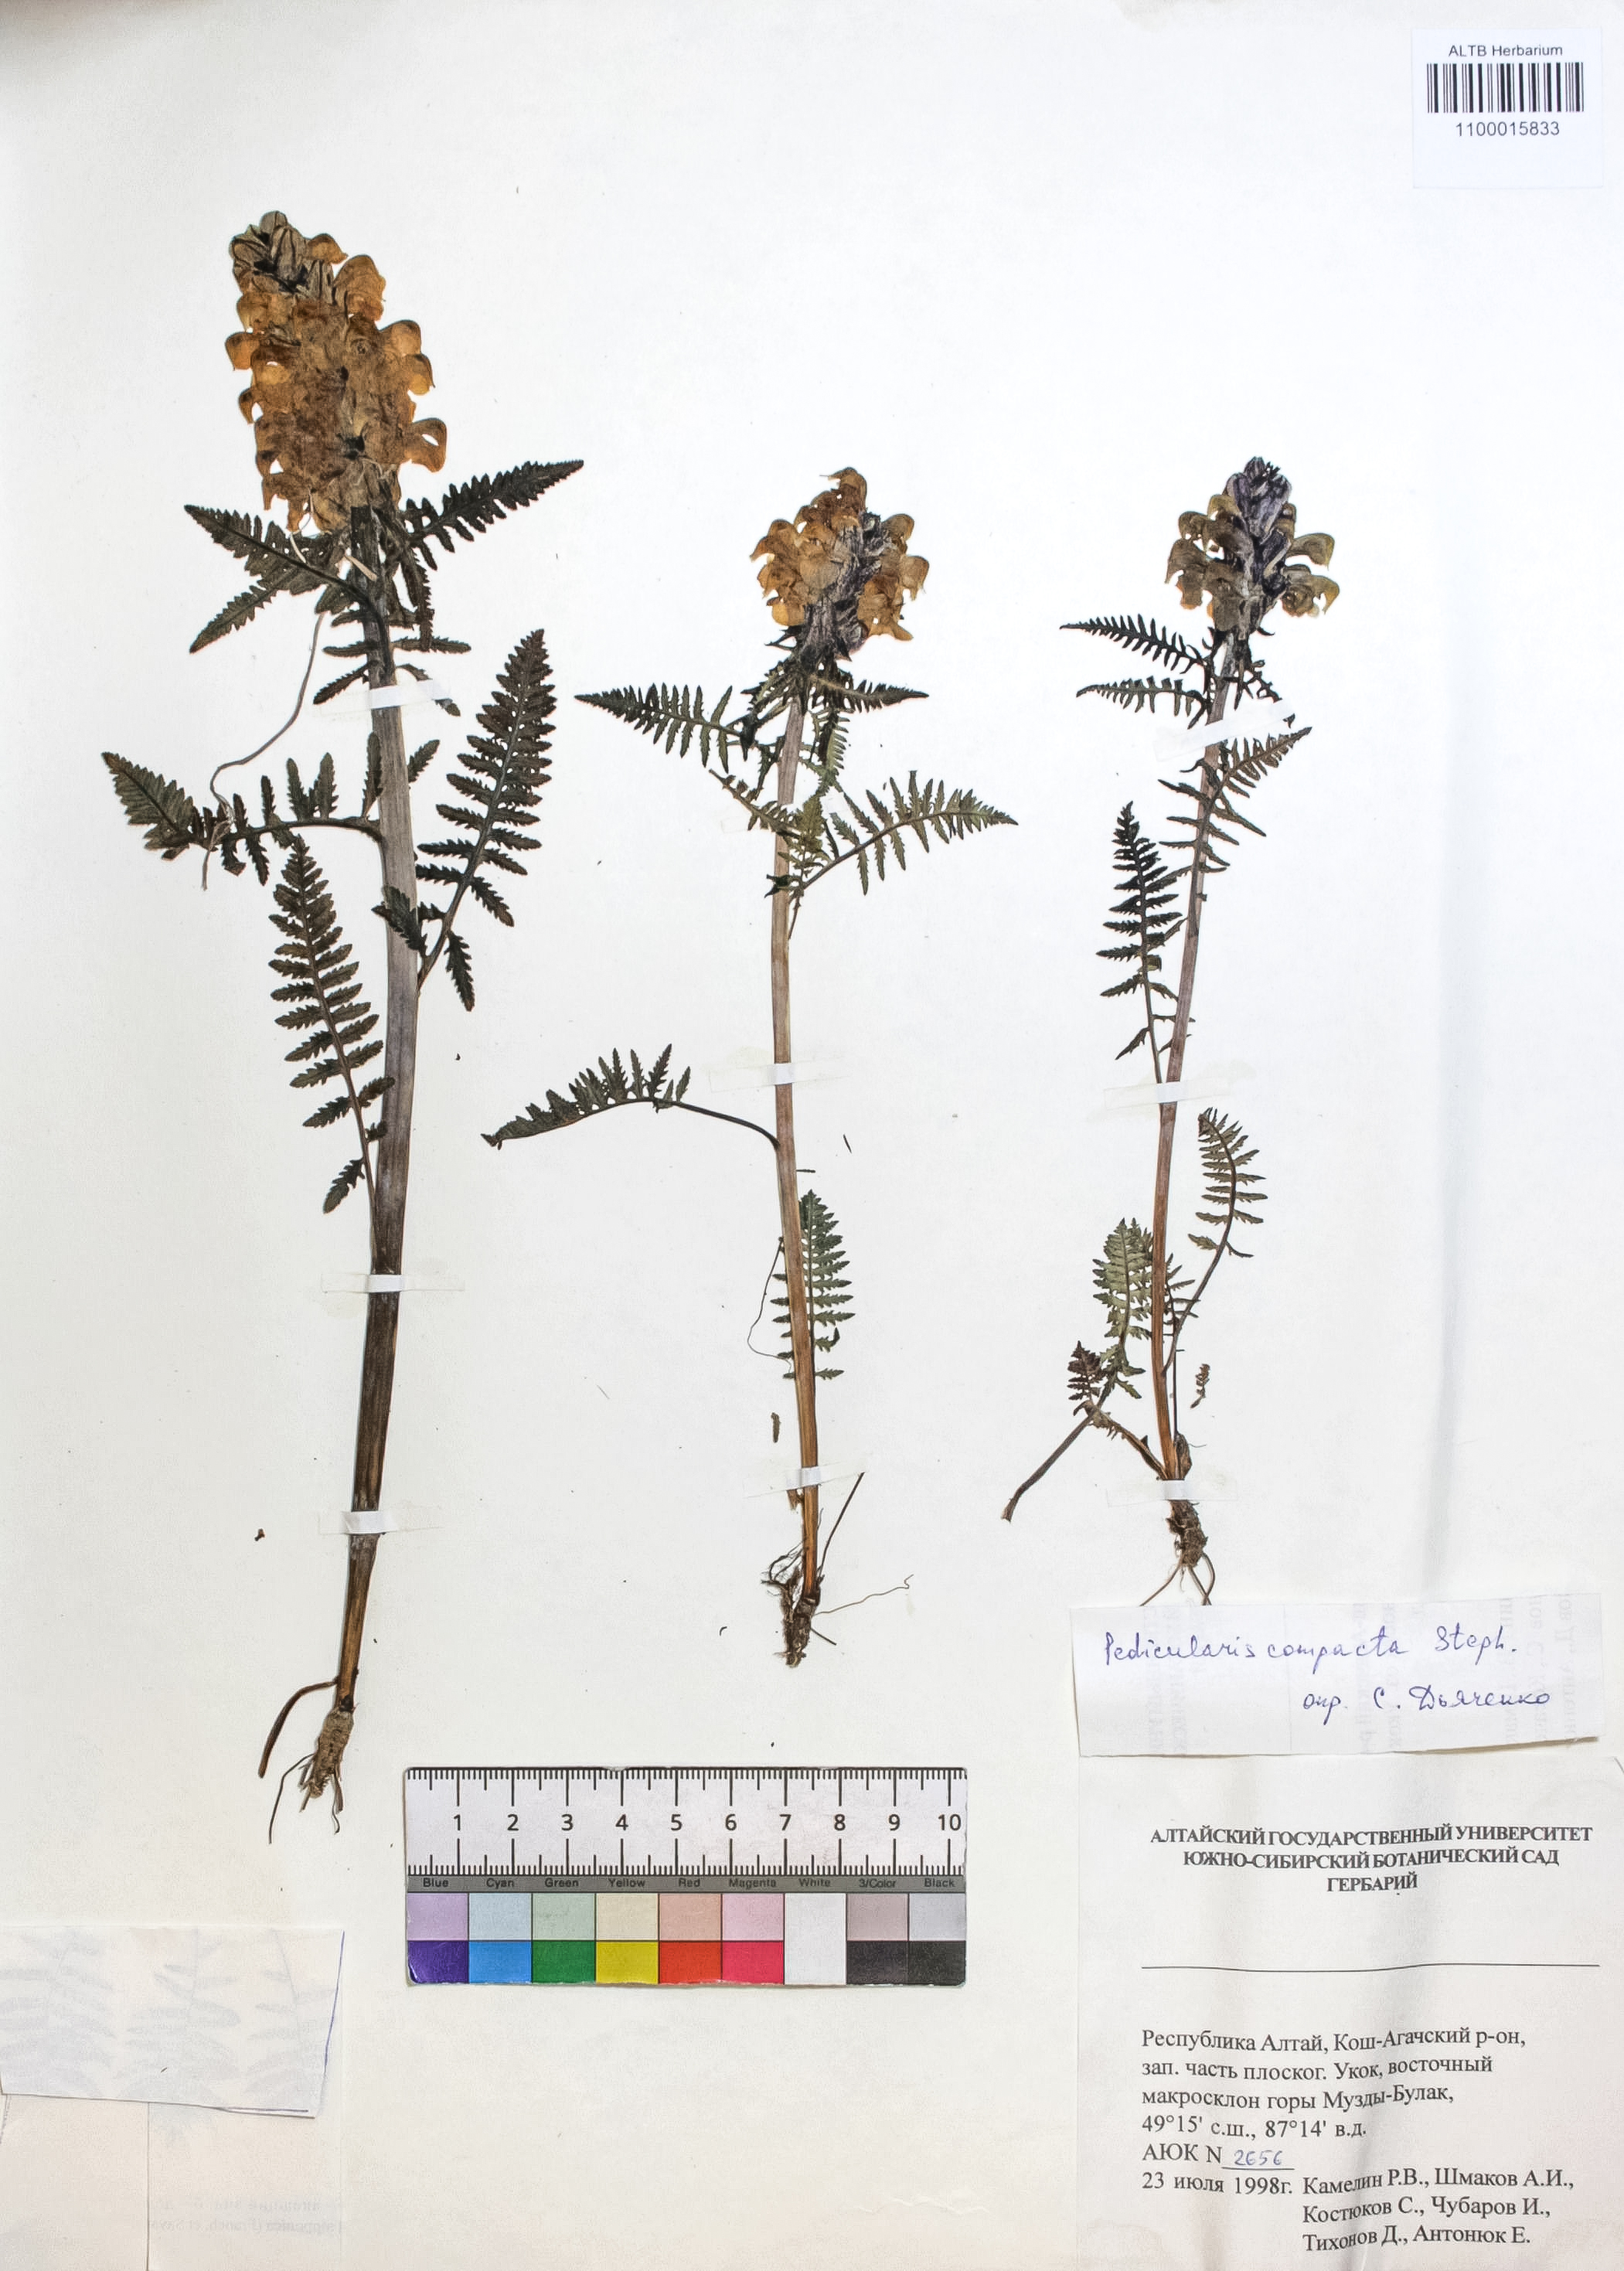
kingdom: Plantae
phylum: Tracheophyta
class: Magnoliopsida
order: Lamiales
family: Orobanchaceae
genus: Pedicularis
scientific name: Pedicularis compacta
